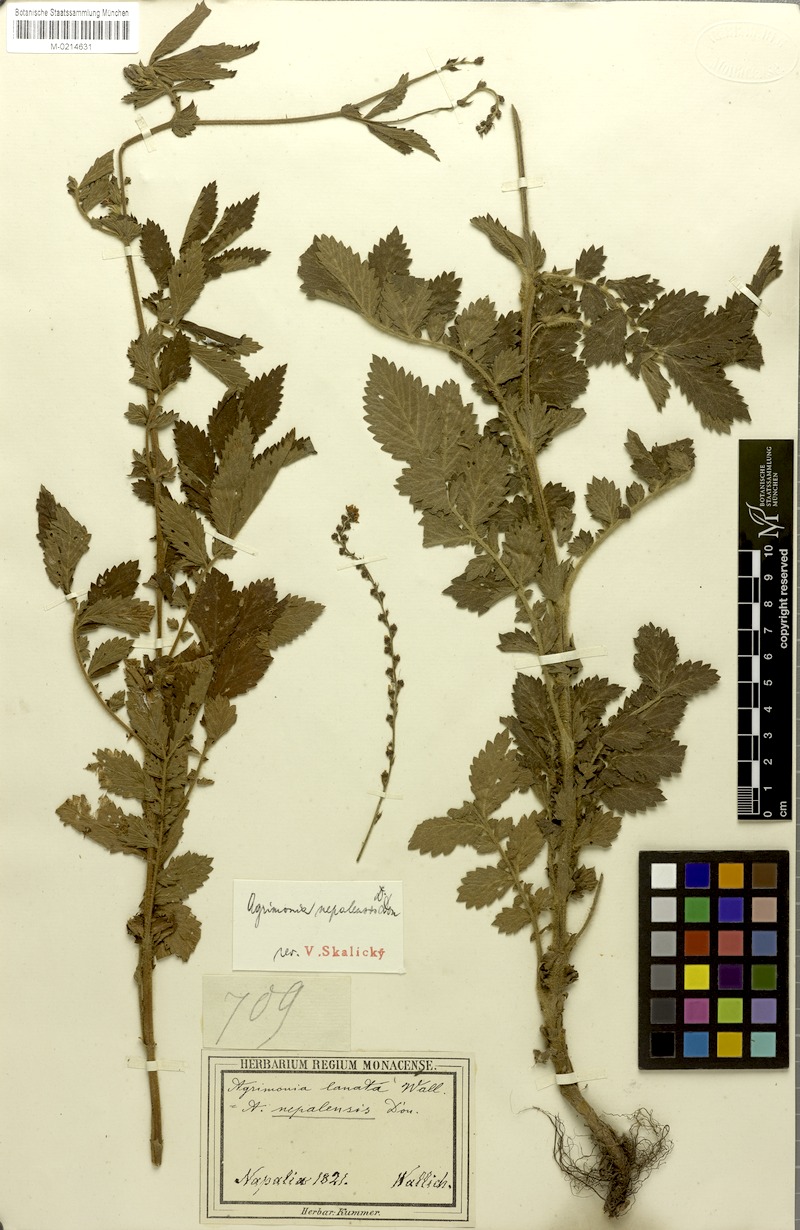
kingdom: Plantae
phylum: Tracheophyta
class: Magnoliopsida
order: Rosales
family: Rosaceae
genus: Agrimonia
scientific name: Agrimonia pilosa
